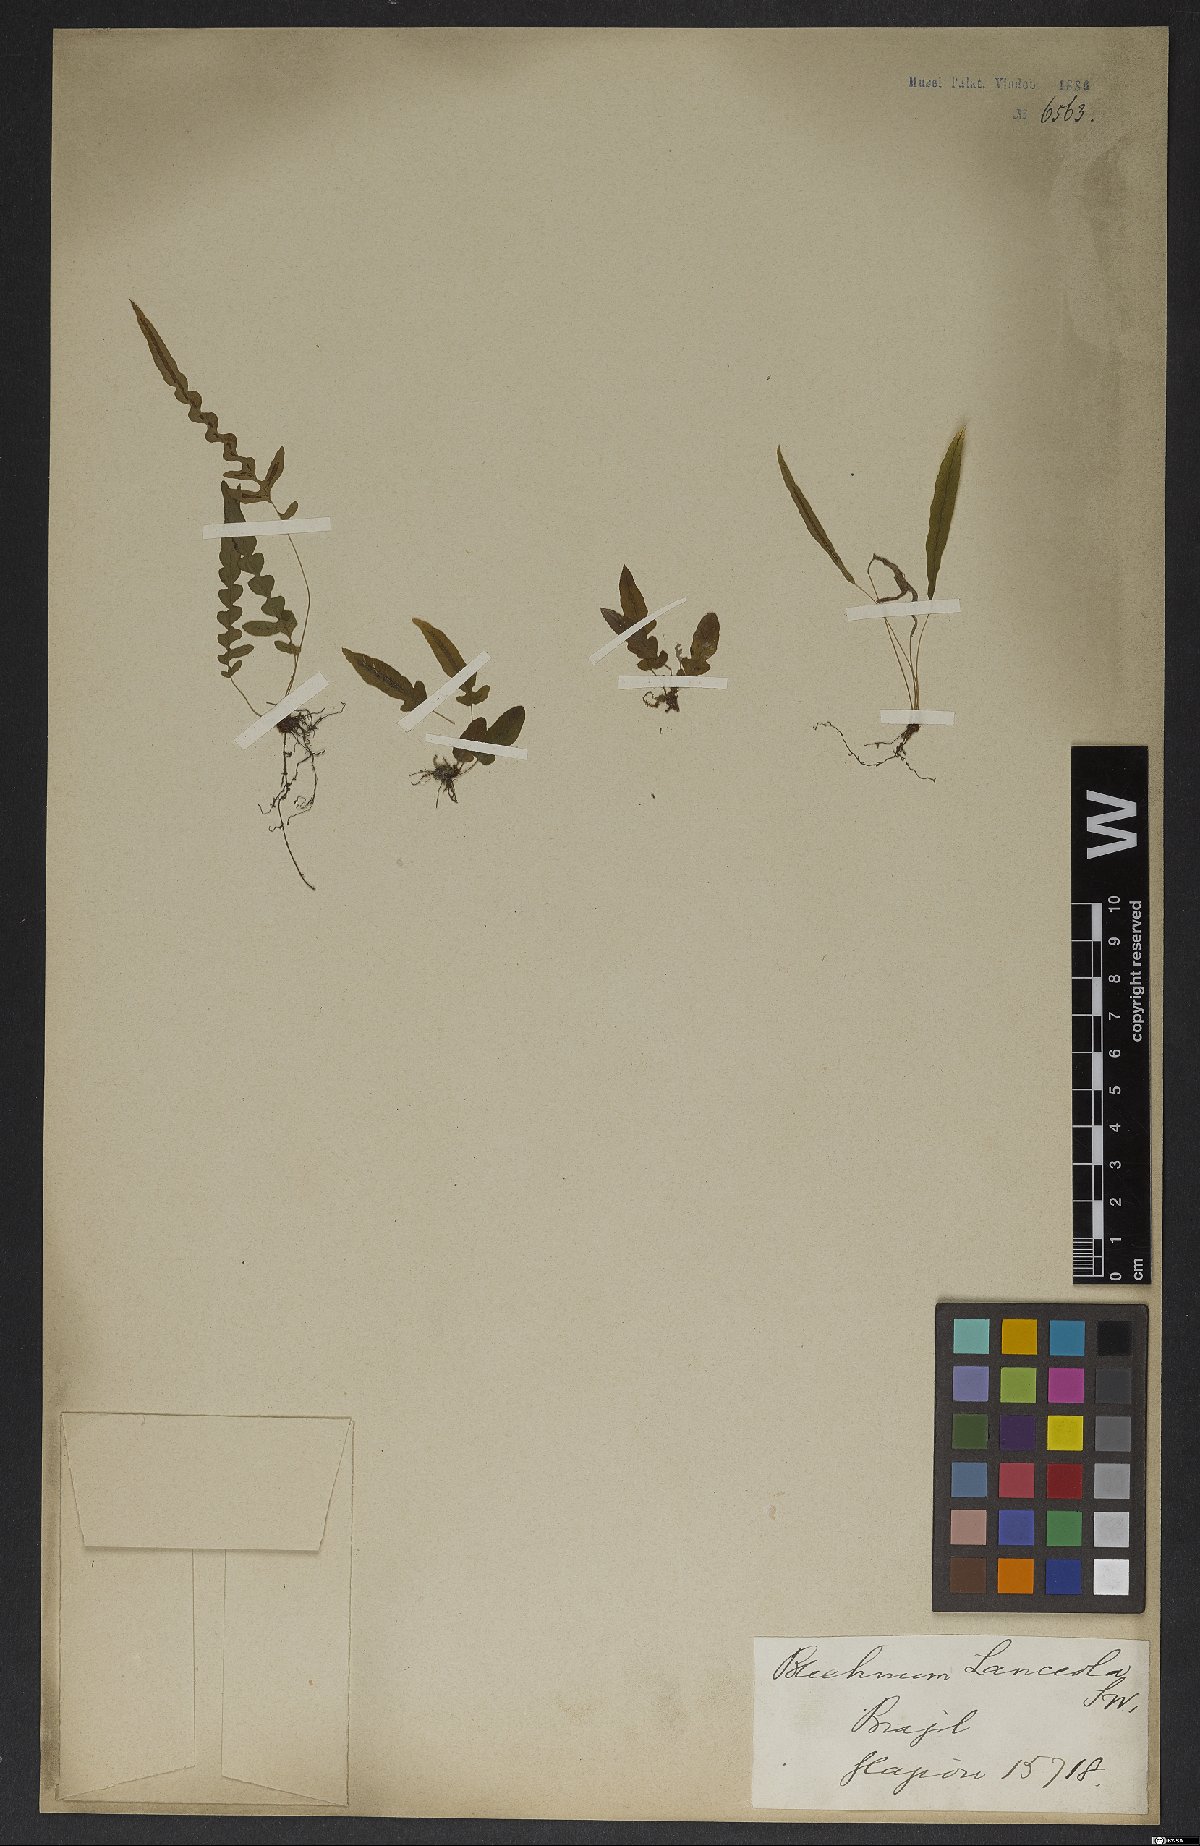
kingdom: Plantae
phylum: Tracheophyta
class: Polypodiopsida
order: Polypodiales
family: Blechnaceae
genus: Blechnum
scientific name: Blechnum lanceola
